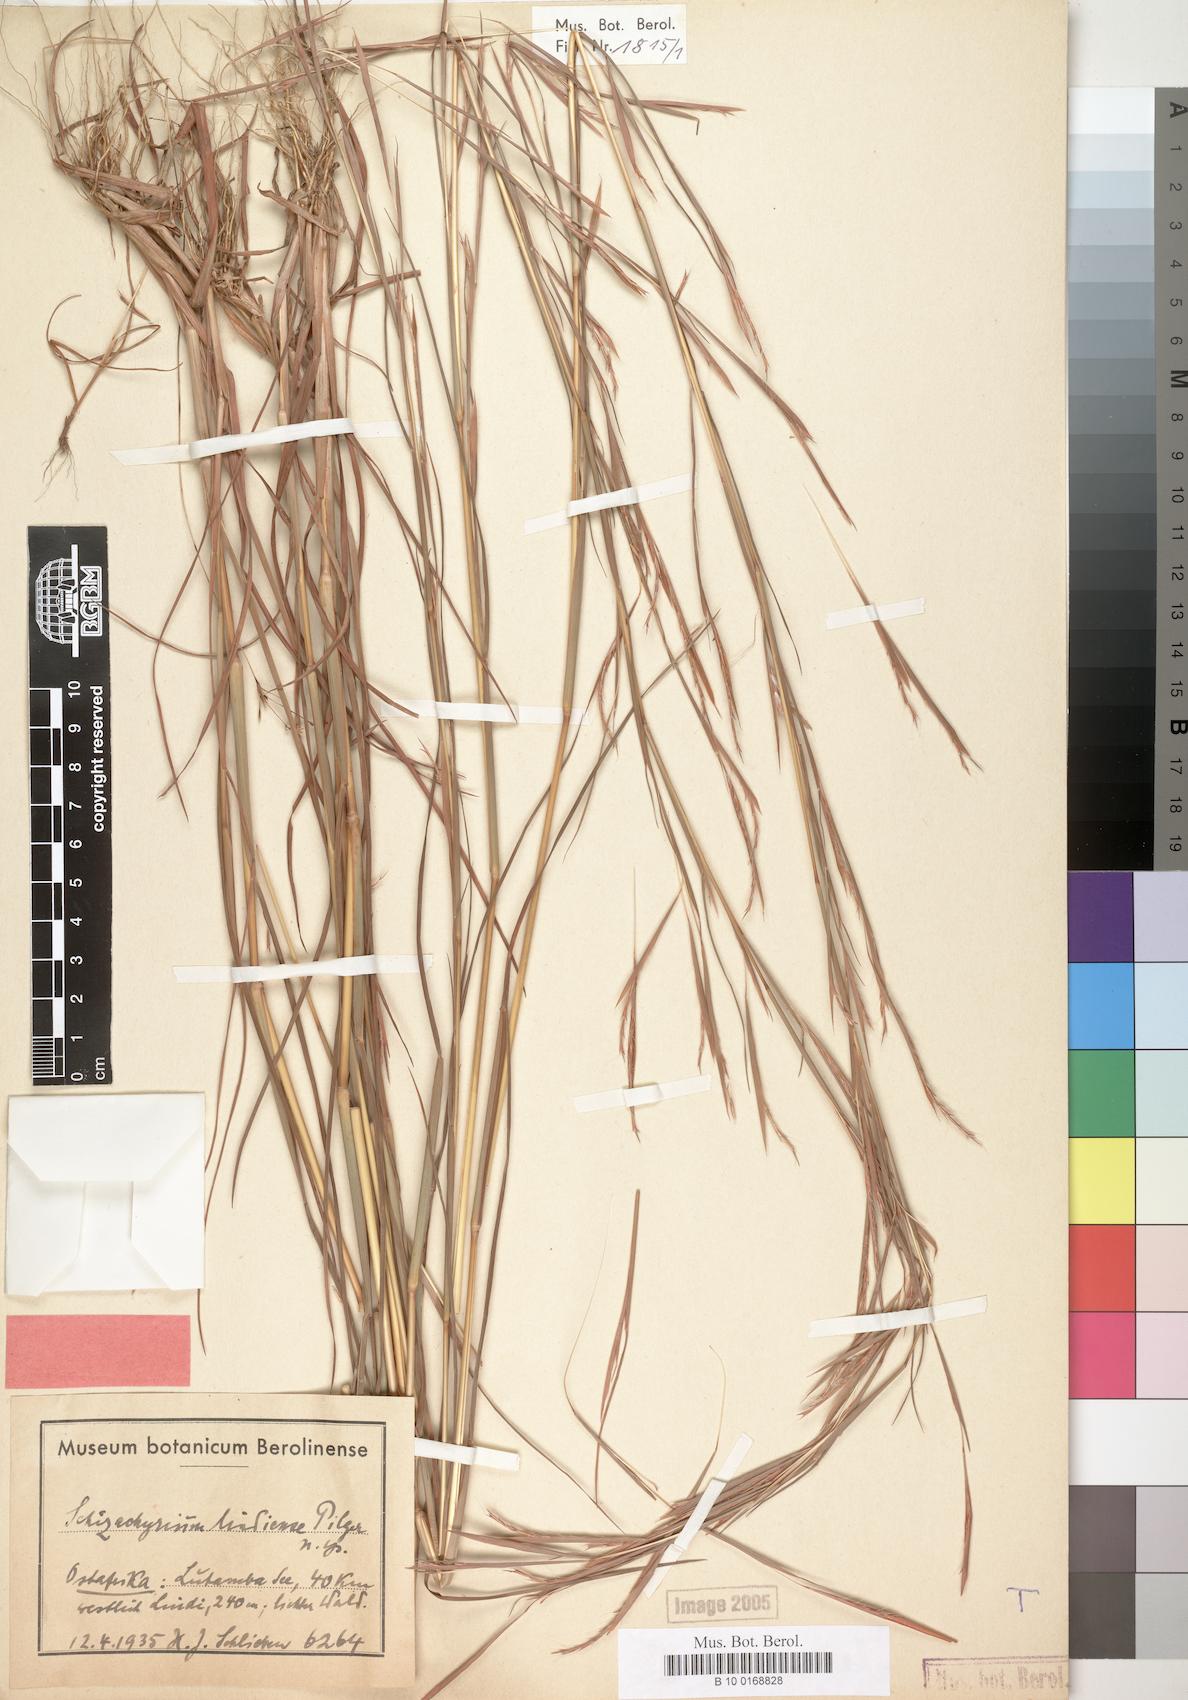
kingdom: Plantae
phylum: Tracheophyta
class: Liliopsida
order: Poales
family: Poaceae
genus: Schizachyrium
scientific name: Schizachyrium sanguineum
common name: Crimson bluestem
